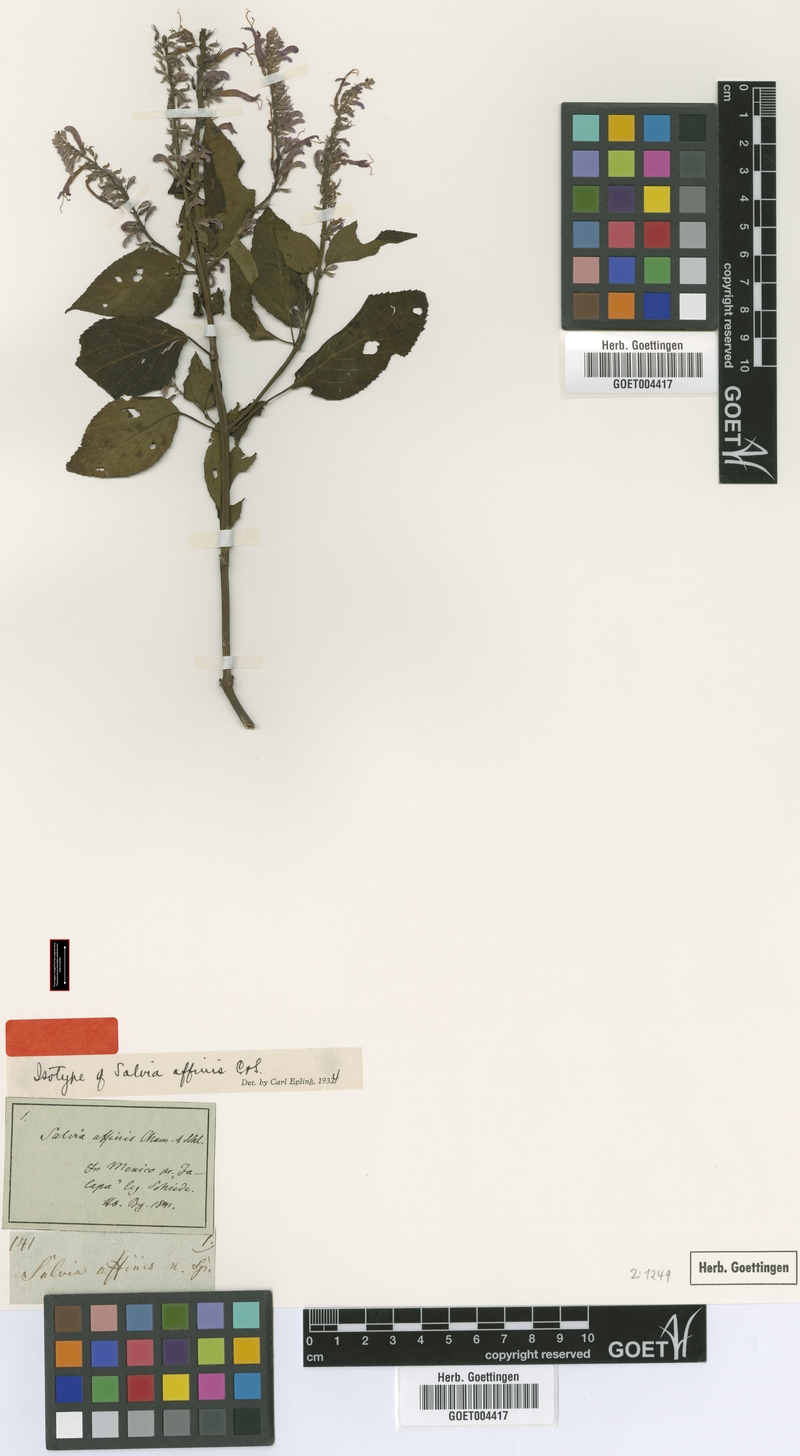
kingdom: Plantae
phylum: Tracheophyta
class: Magnoliopsida
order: Lamiales
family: Lamiaceae
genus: Salvia
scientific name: Salvia purpurea
